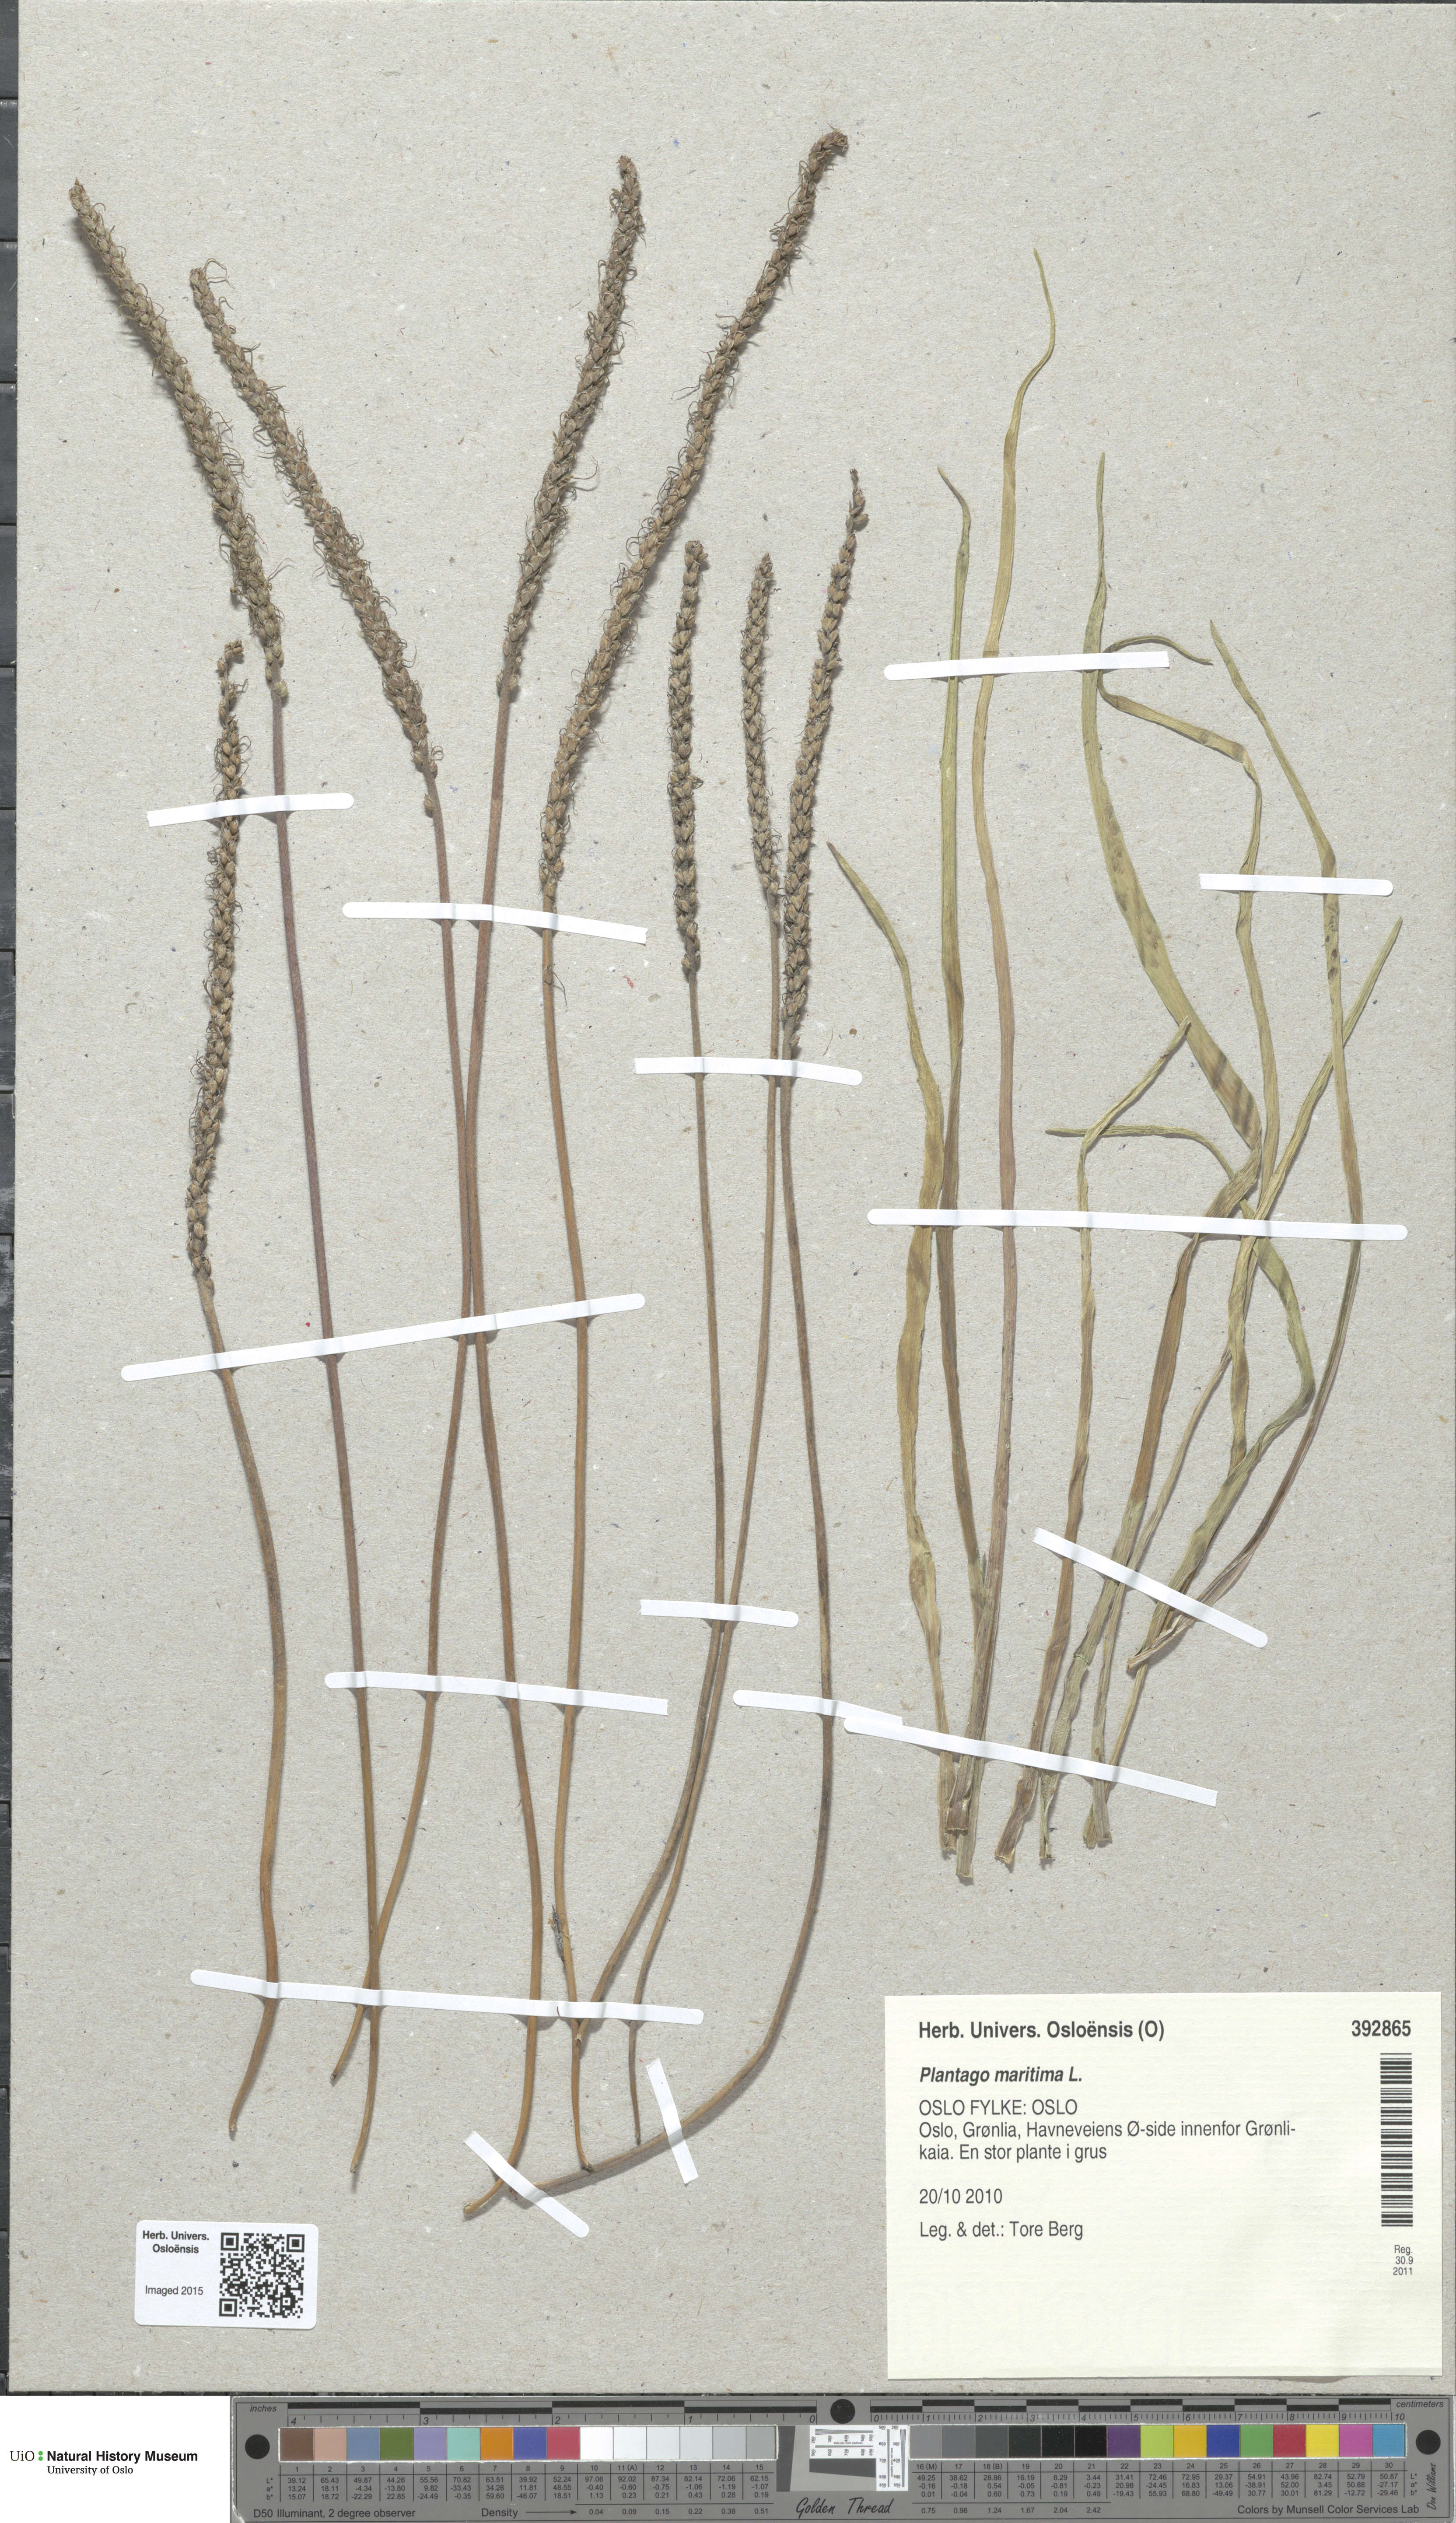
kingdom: Plantae
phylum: Tracheophyta
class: Magnoliopsida
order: Lamiales
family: Plantaginaceae
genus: Plantago
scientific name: Plantago maritima
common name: Sea plantain
